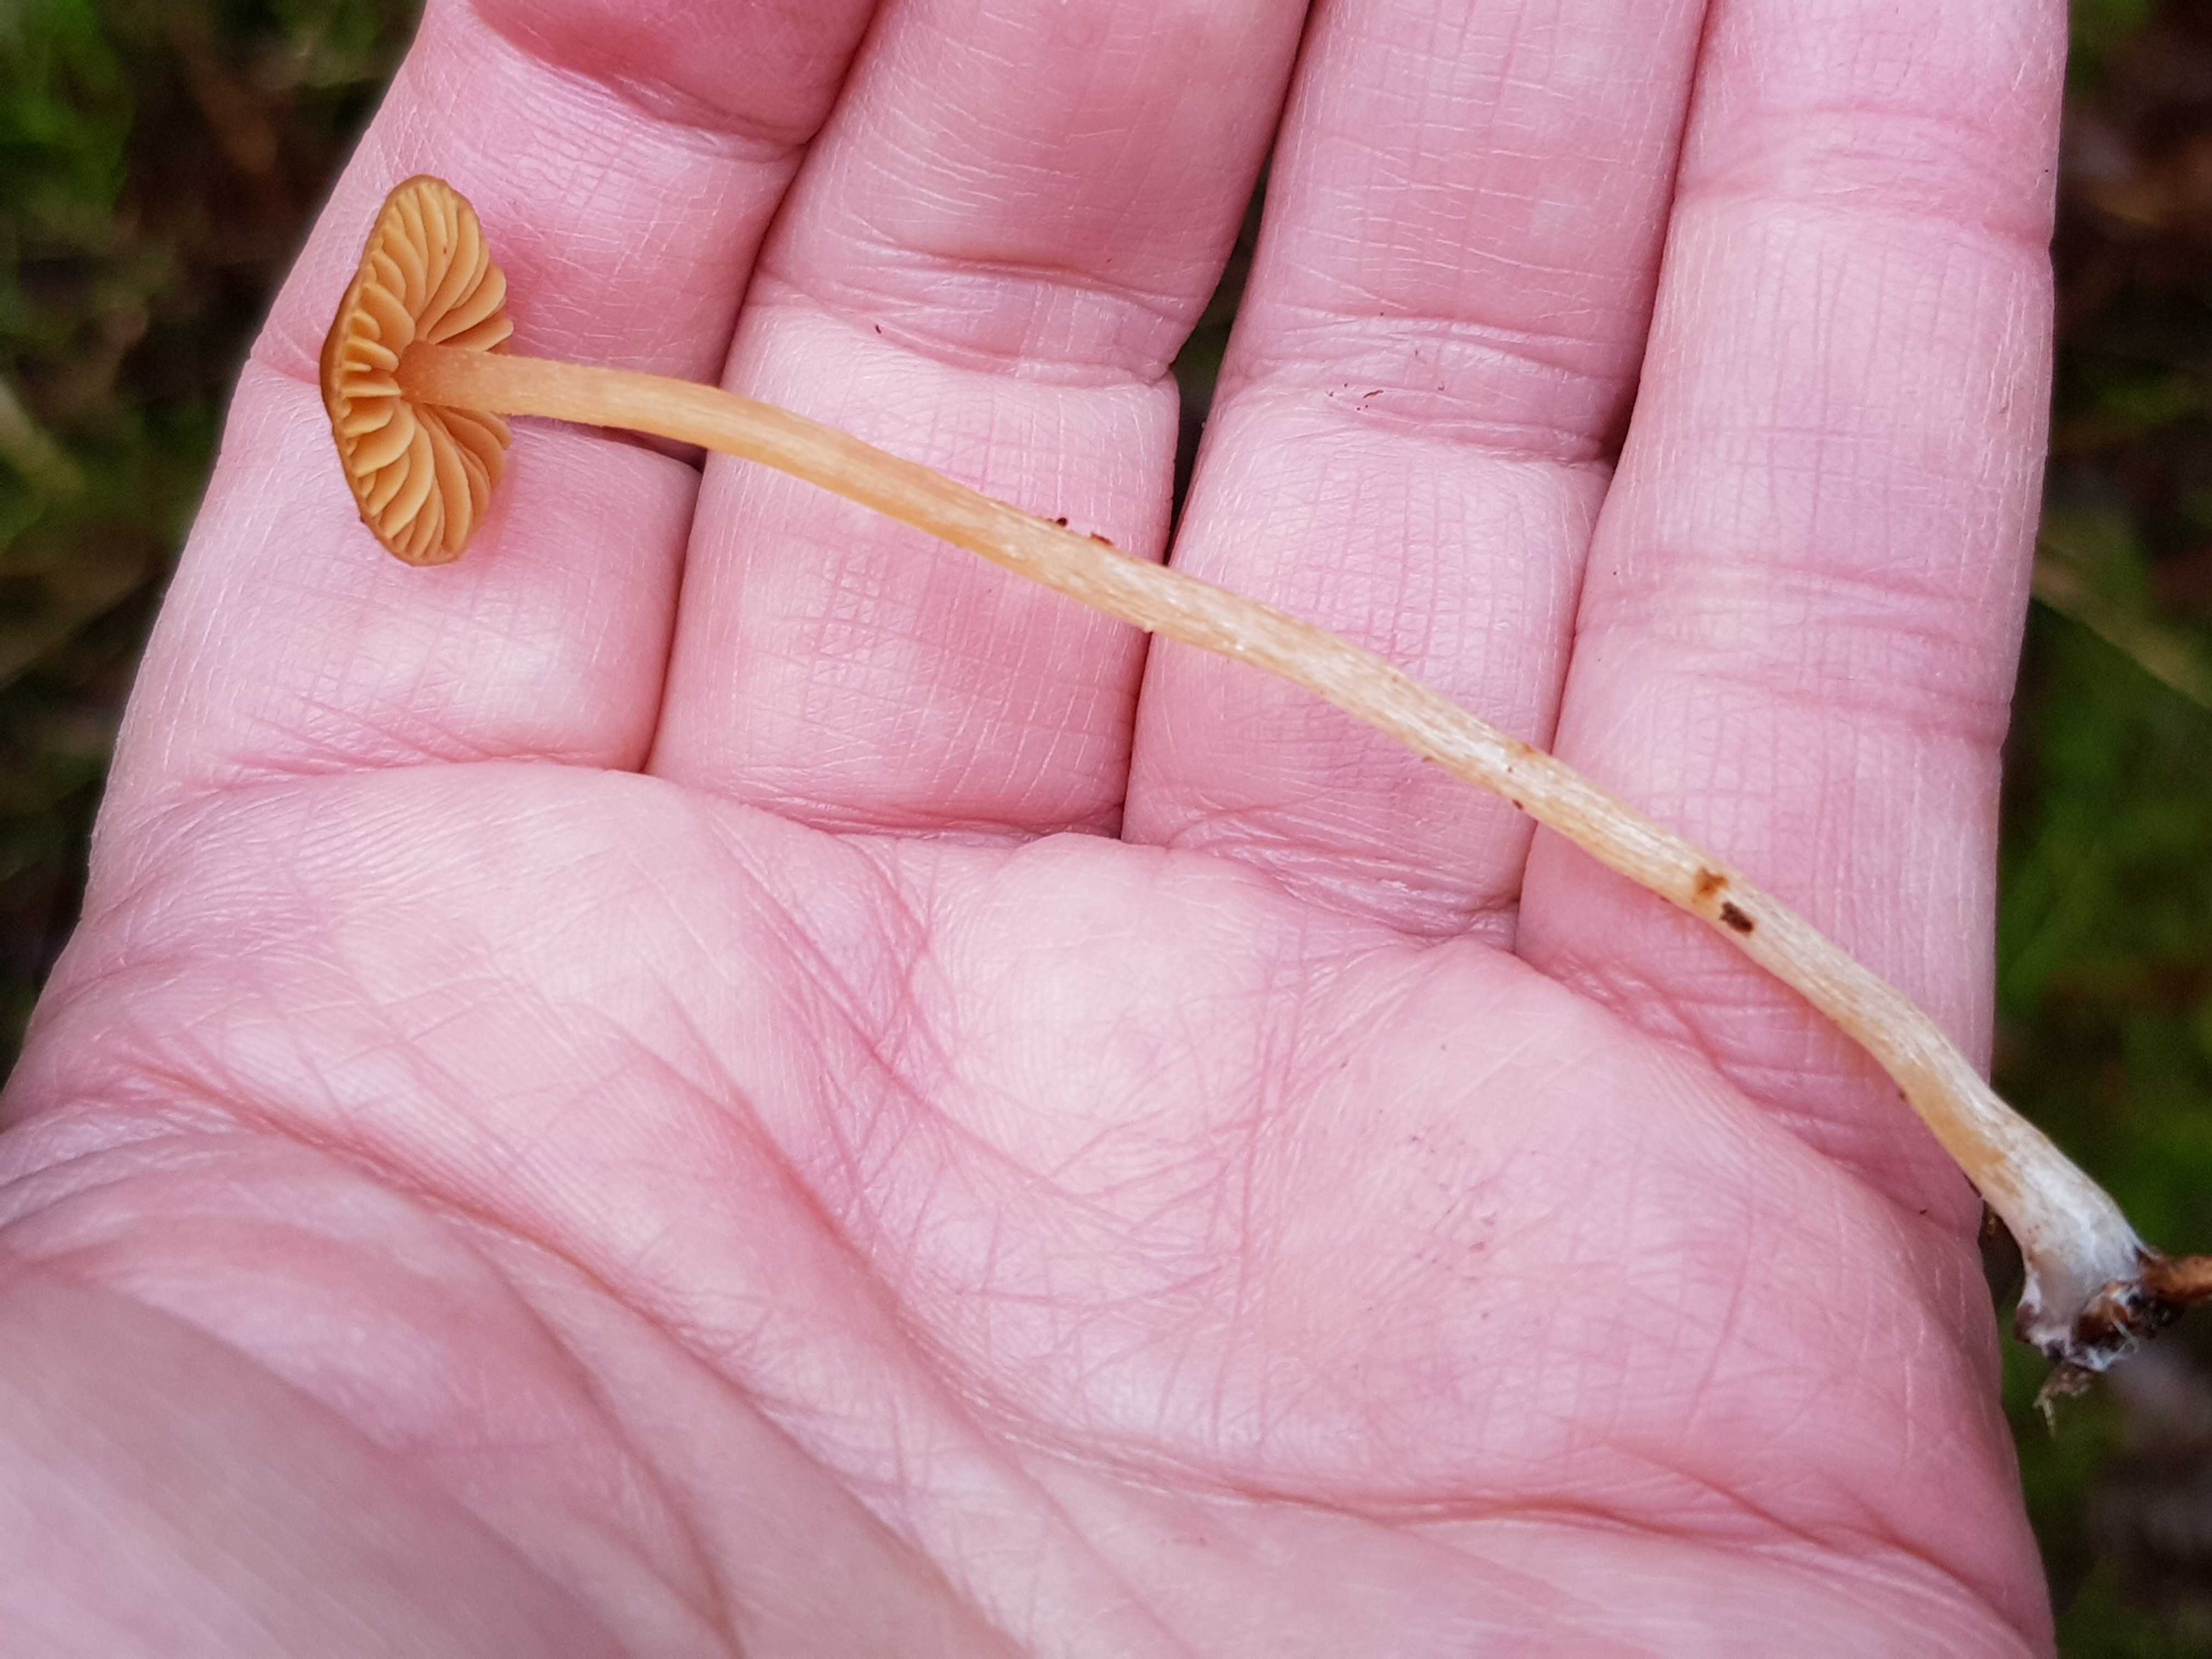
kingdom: Fungi
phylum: Basidiomycota
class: Agaricomycetes
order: Agaricales
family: Hymenogastraceae
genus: Galerina
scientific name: Galerina
